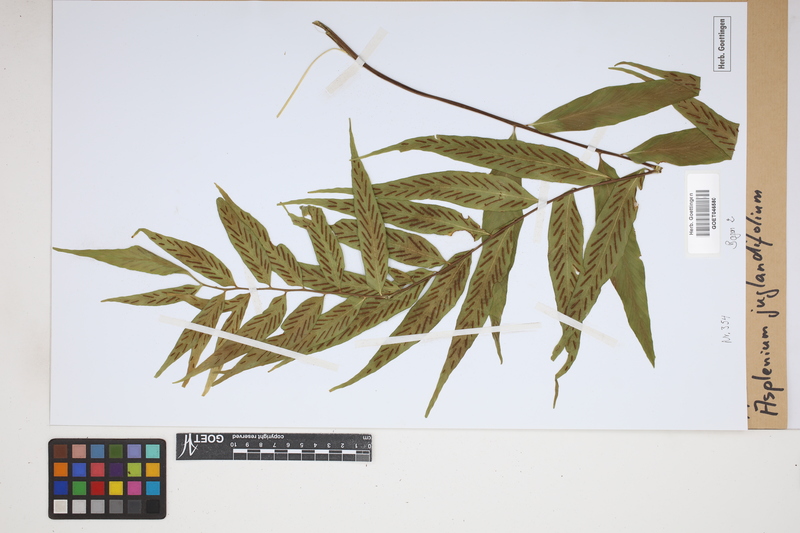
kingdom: Plantae
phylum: Tracheophyta
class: Polypodiopsida
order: Polypodiales
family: Aspleniaceae
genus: Asplenium
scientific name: Asplenium juglandifolium
